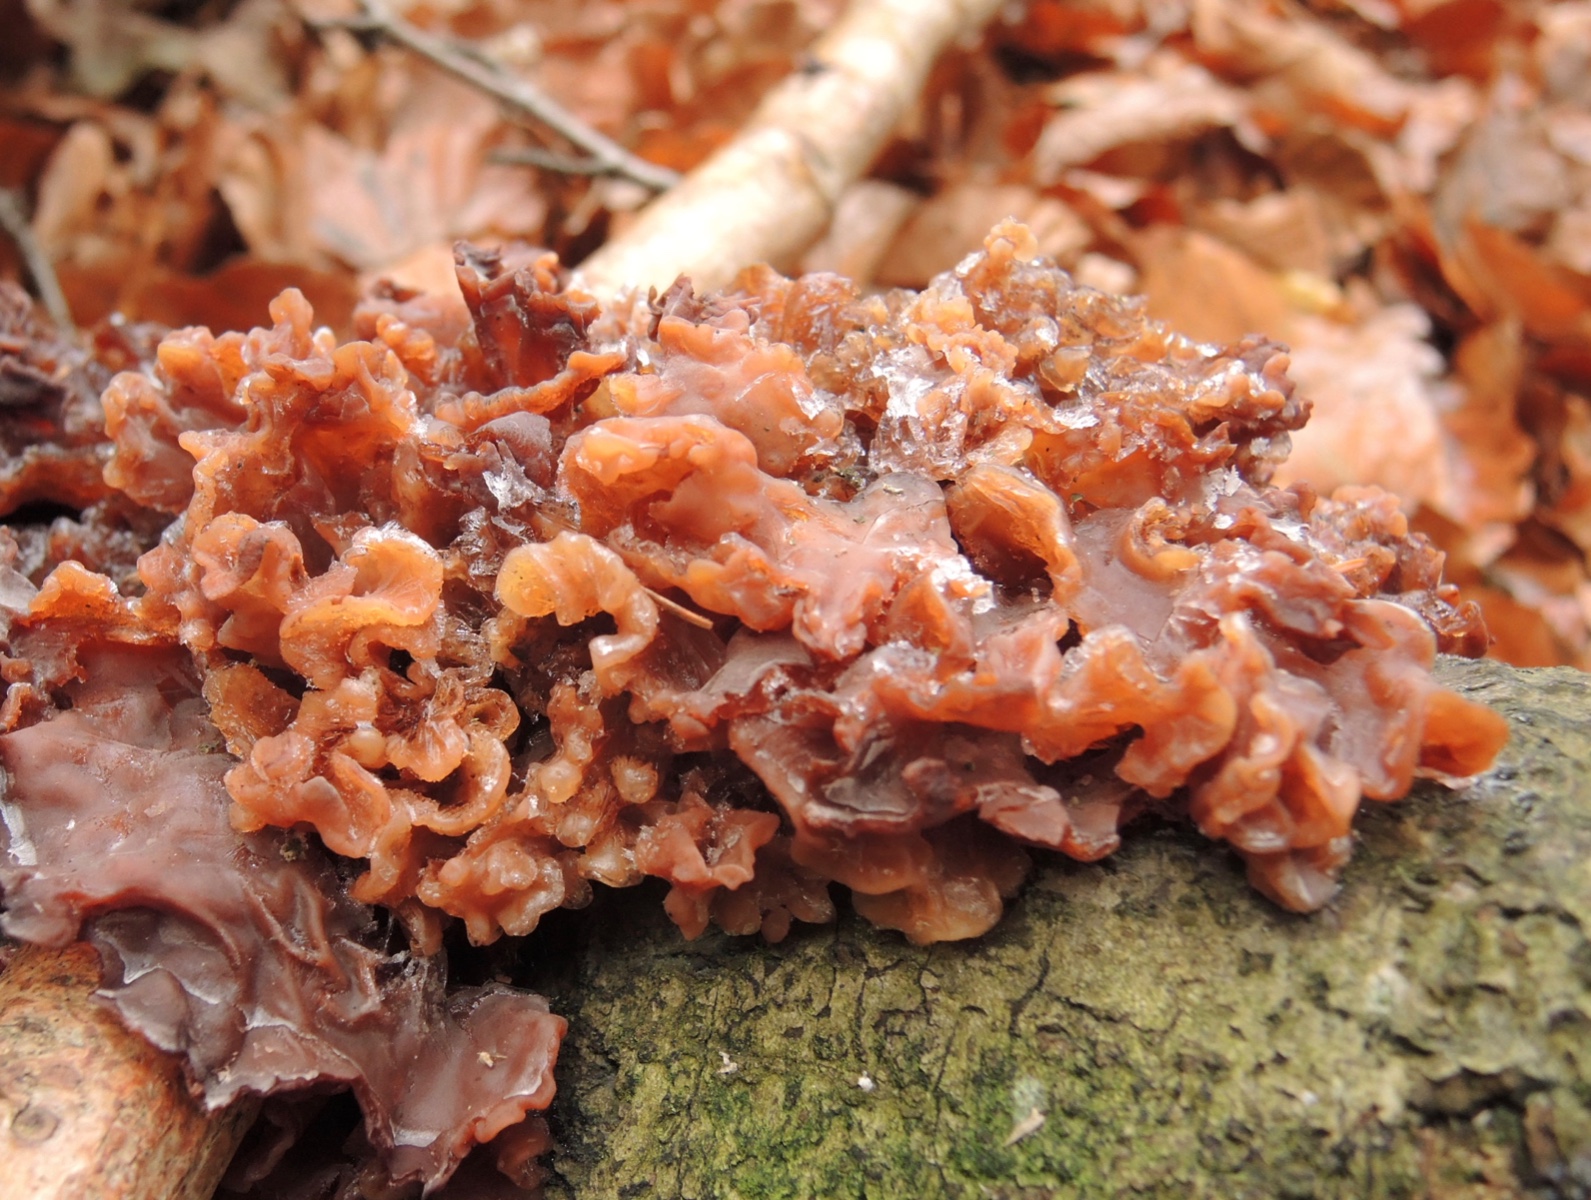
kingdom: Fungi
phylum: Basidiomycota
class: Tremellomycetes
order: Tremellales
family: Tremellaceae
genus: Phaeotremella
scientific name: Phaeotremella frondosa
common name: kæmpe-bævresvamp
